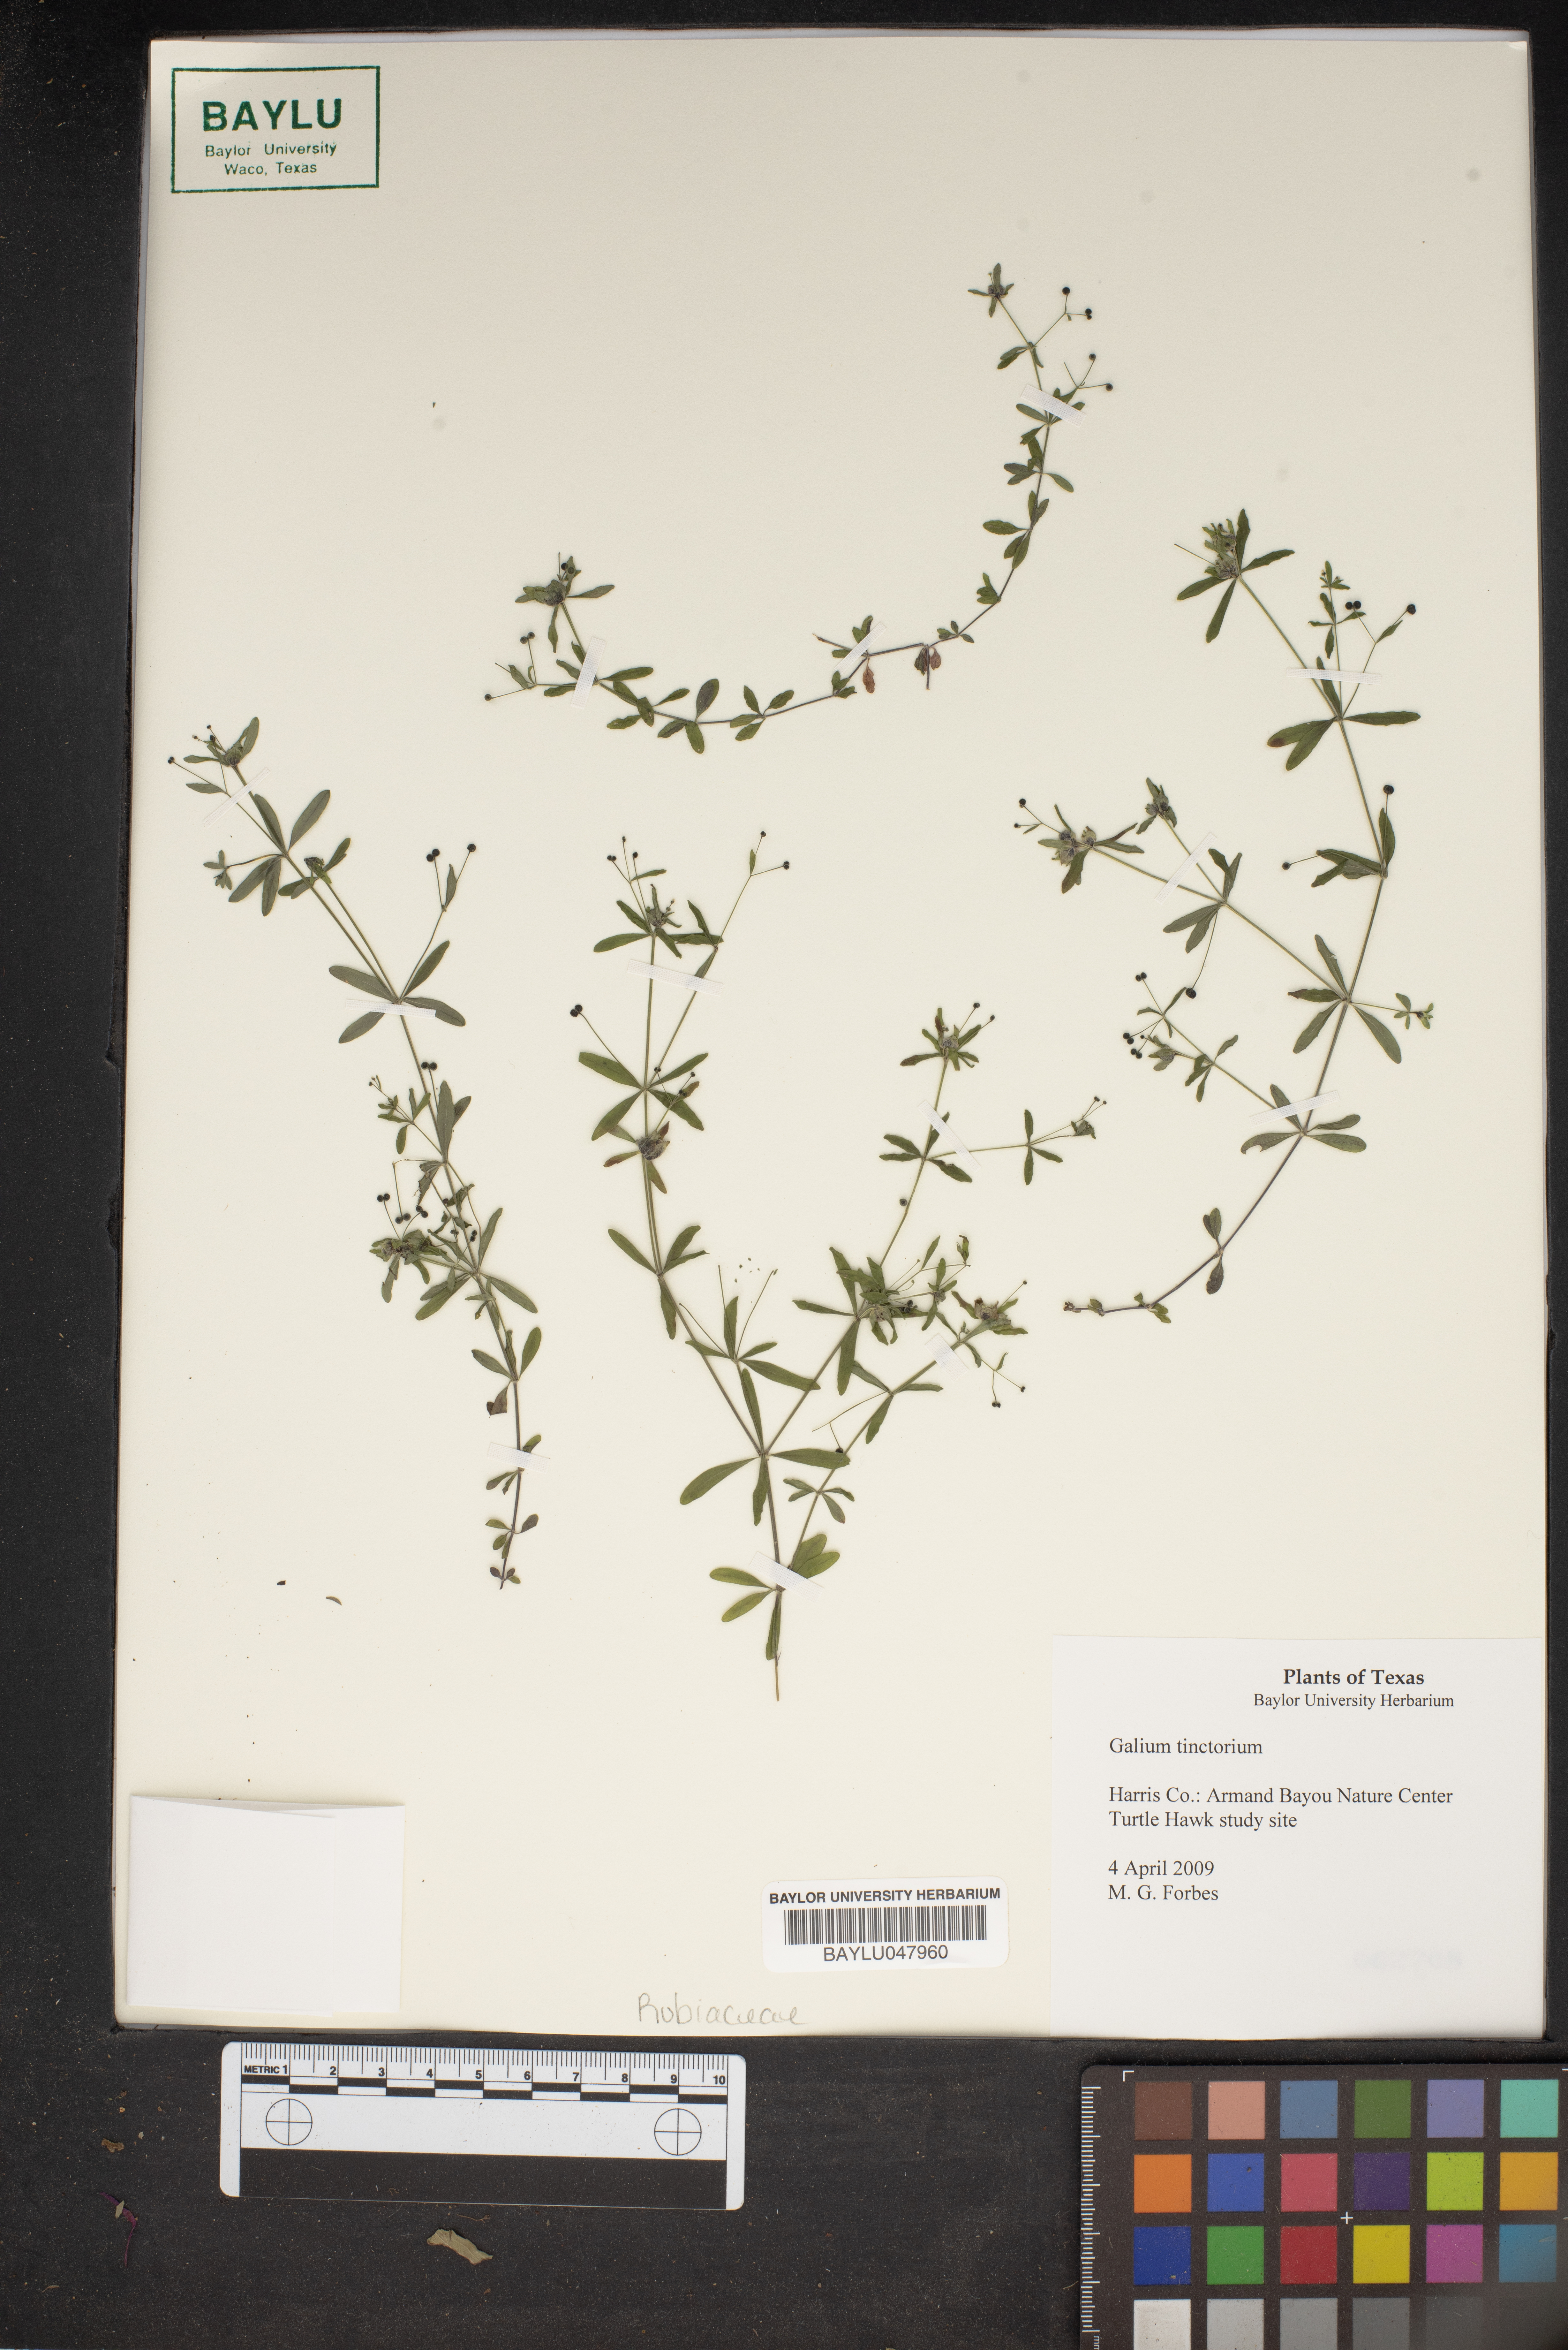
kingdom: Plantae
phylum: Tracheophyta
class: Magnoliopsida
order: Gentianales
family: Rubiaceae
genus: Asperula
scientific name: Asperula tinctoria
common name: Dyer's woodruff
